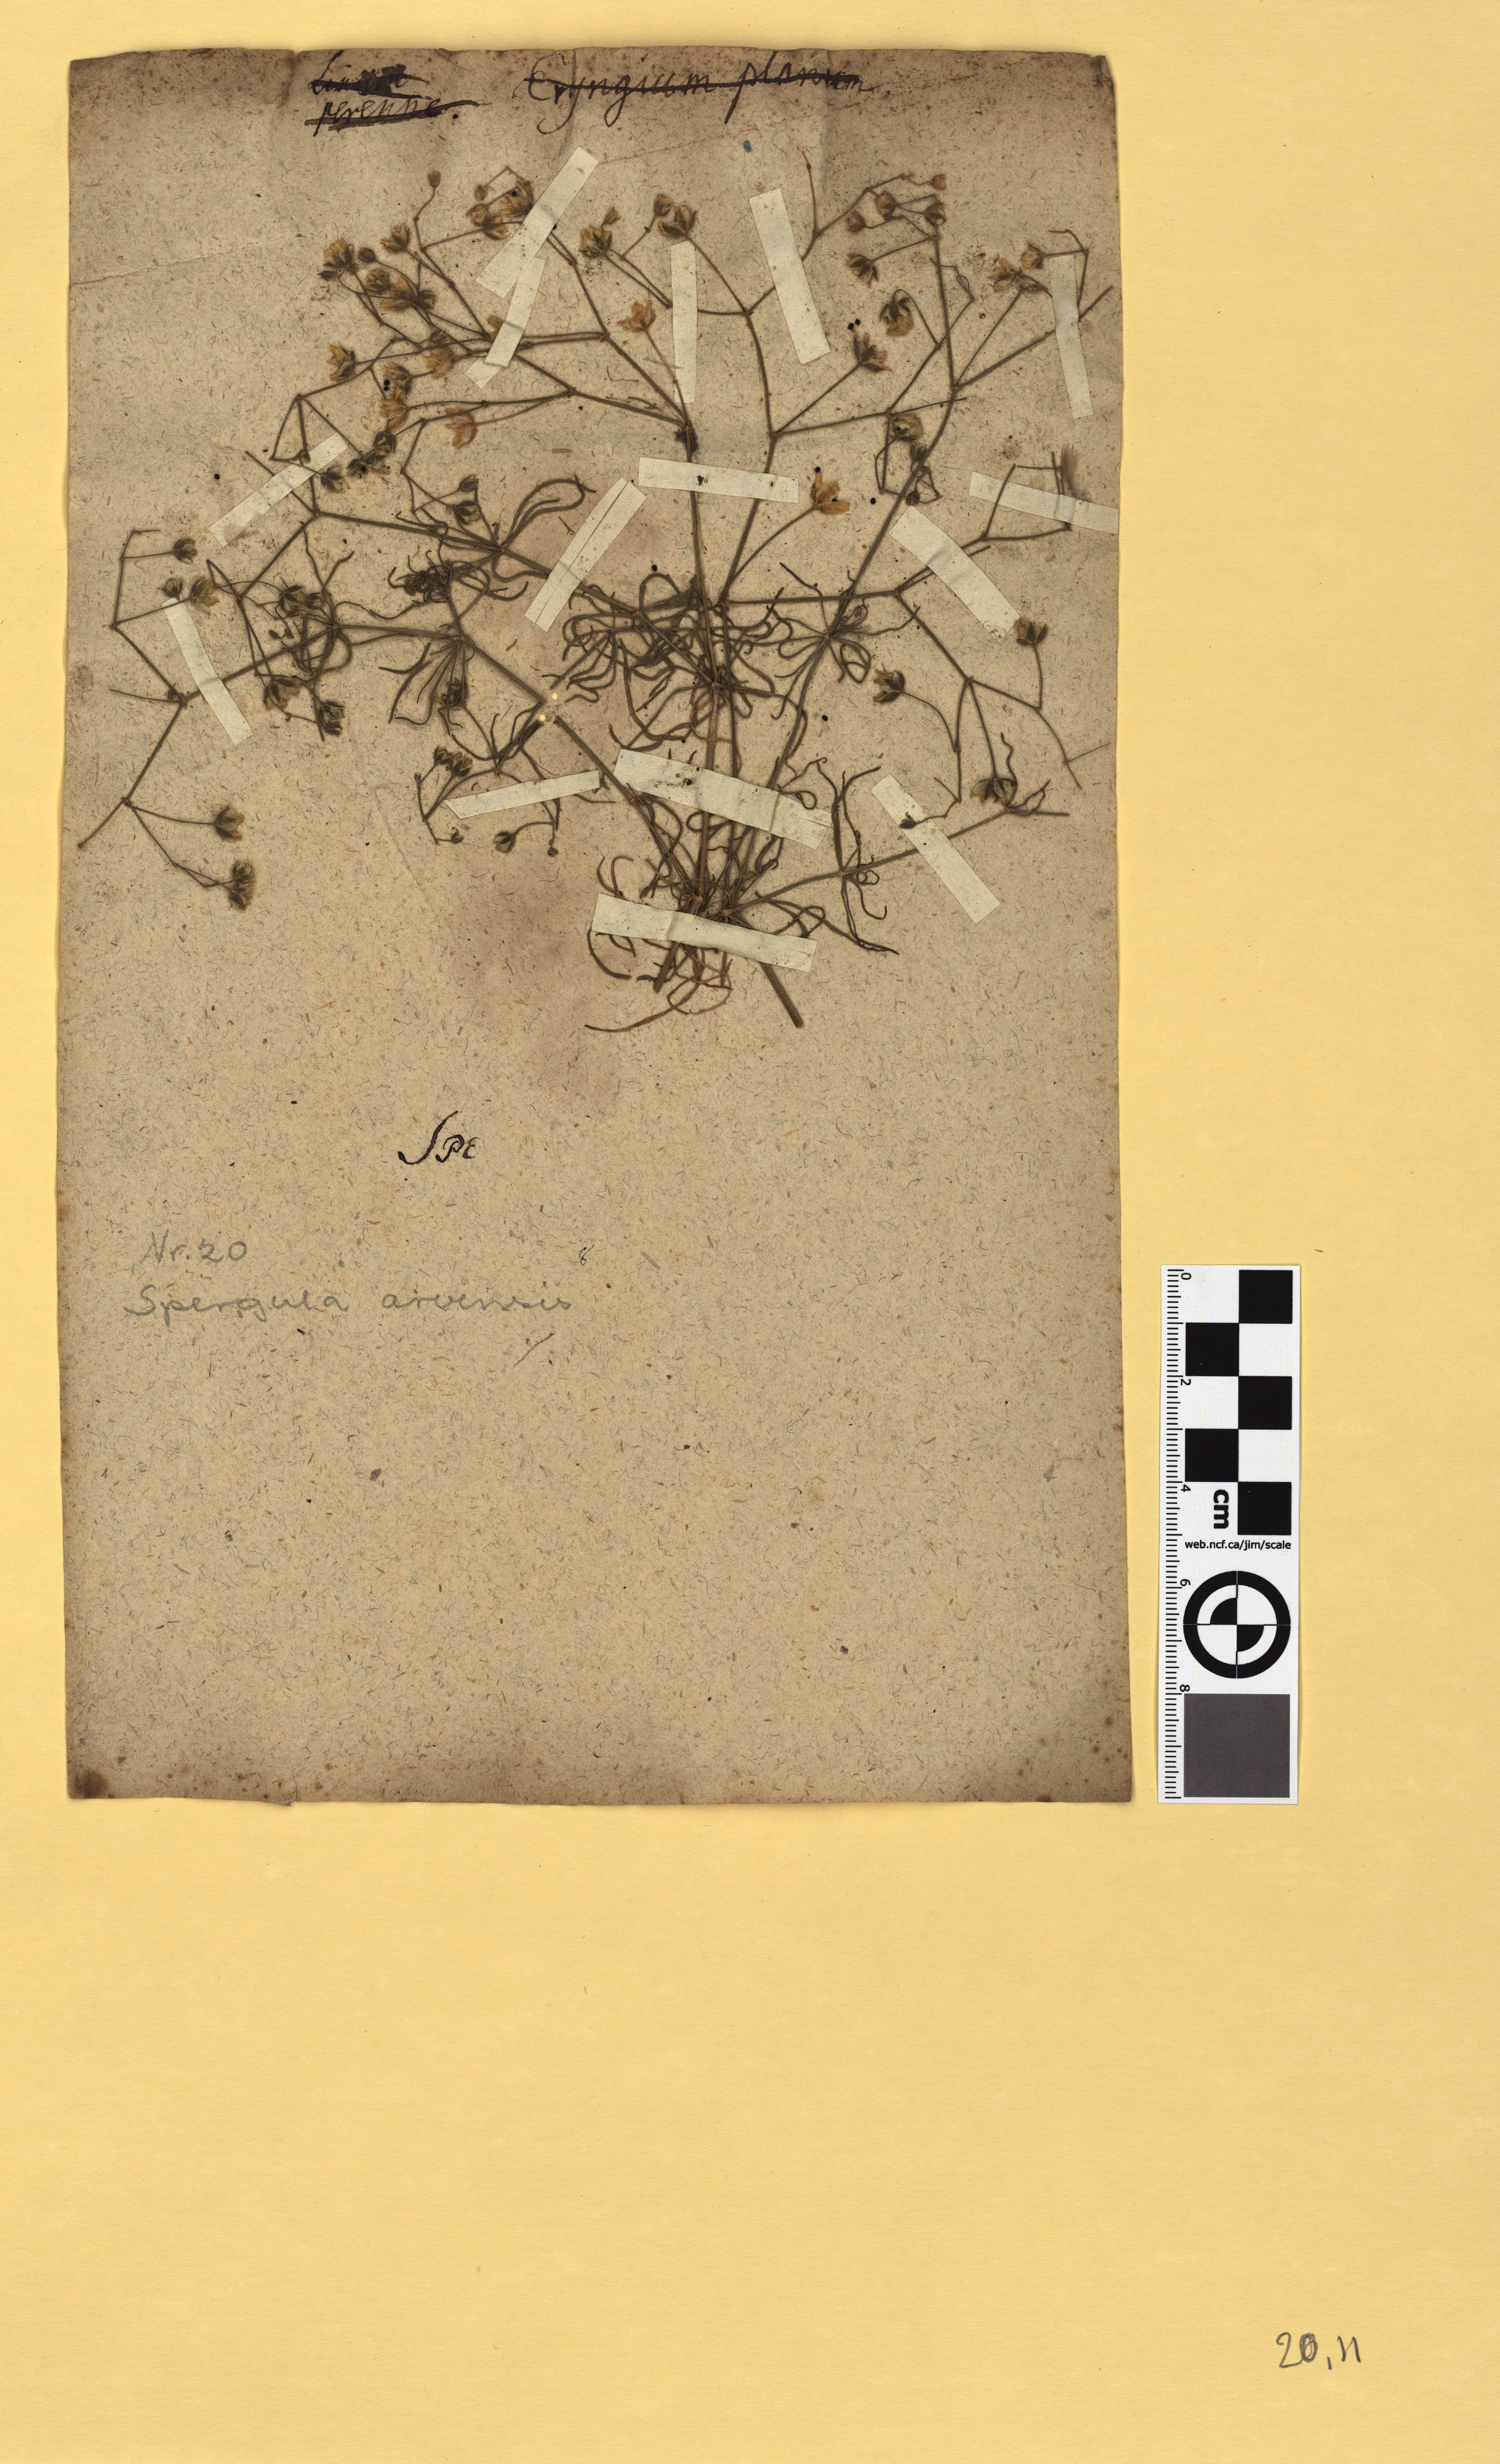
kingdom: Plantae
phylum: Tracheophyta
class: Magnoliopsida
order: Caryophyllales
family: Caryophyllaceae
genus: Spergula
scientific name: Spergula arvensis
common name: Corn spurrey
